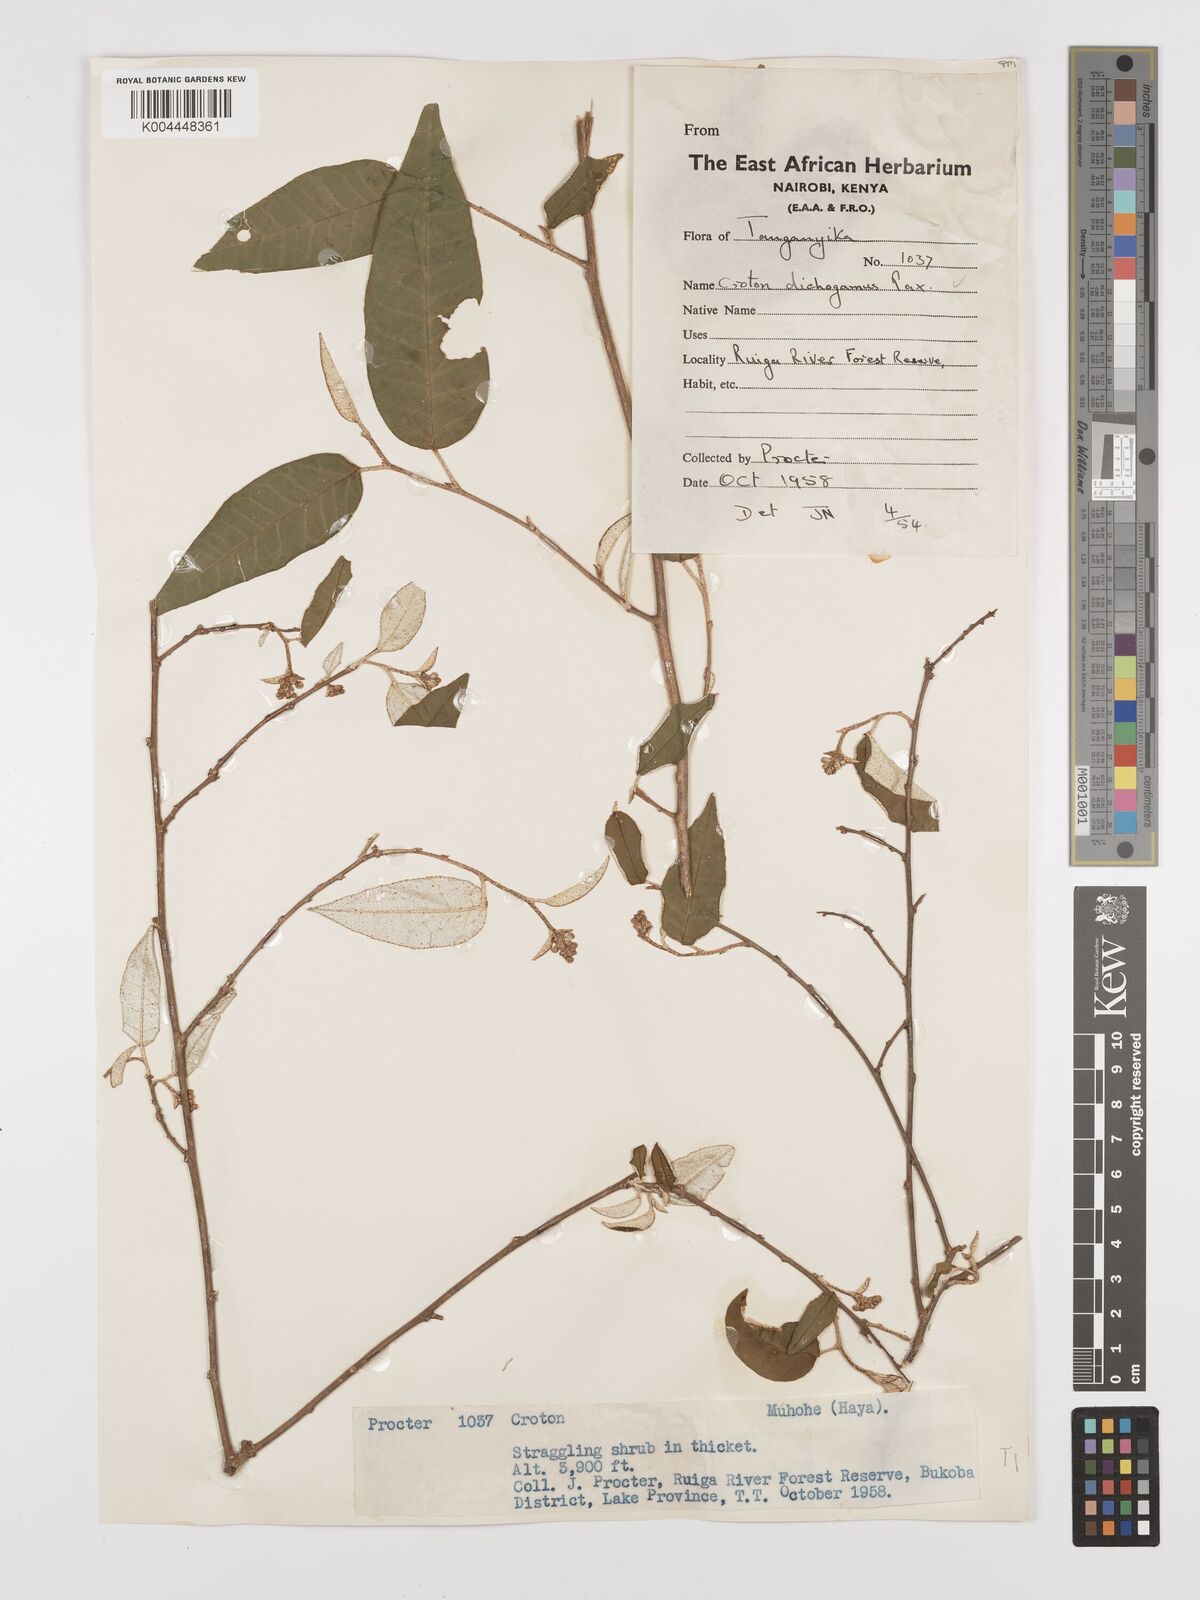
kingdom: Plantae
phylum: Tracheophyta
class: Magnoliopsida
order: Malpighiales
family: Euphorbiaceae
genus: Croton
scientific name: Croton dichogamus
